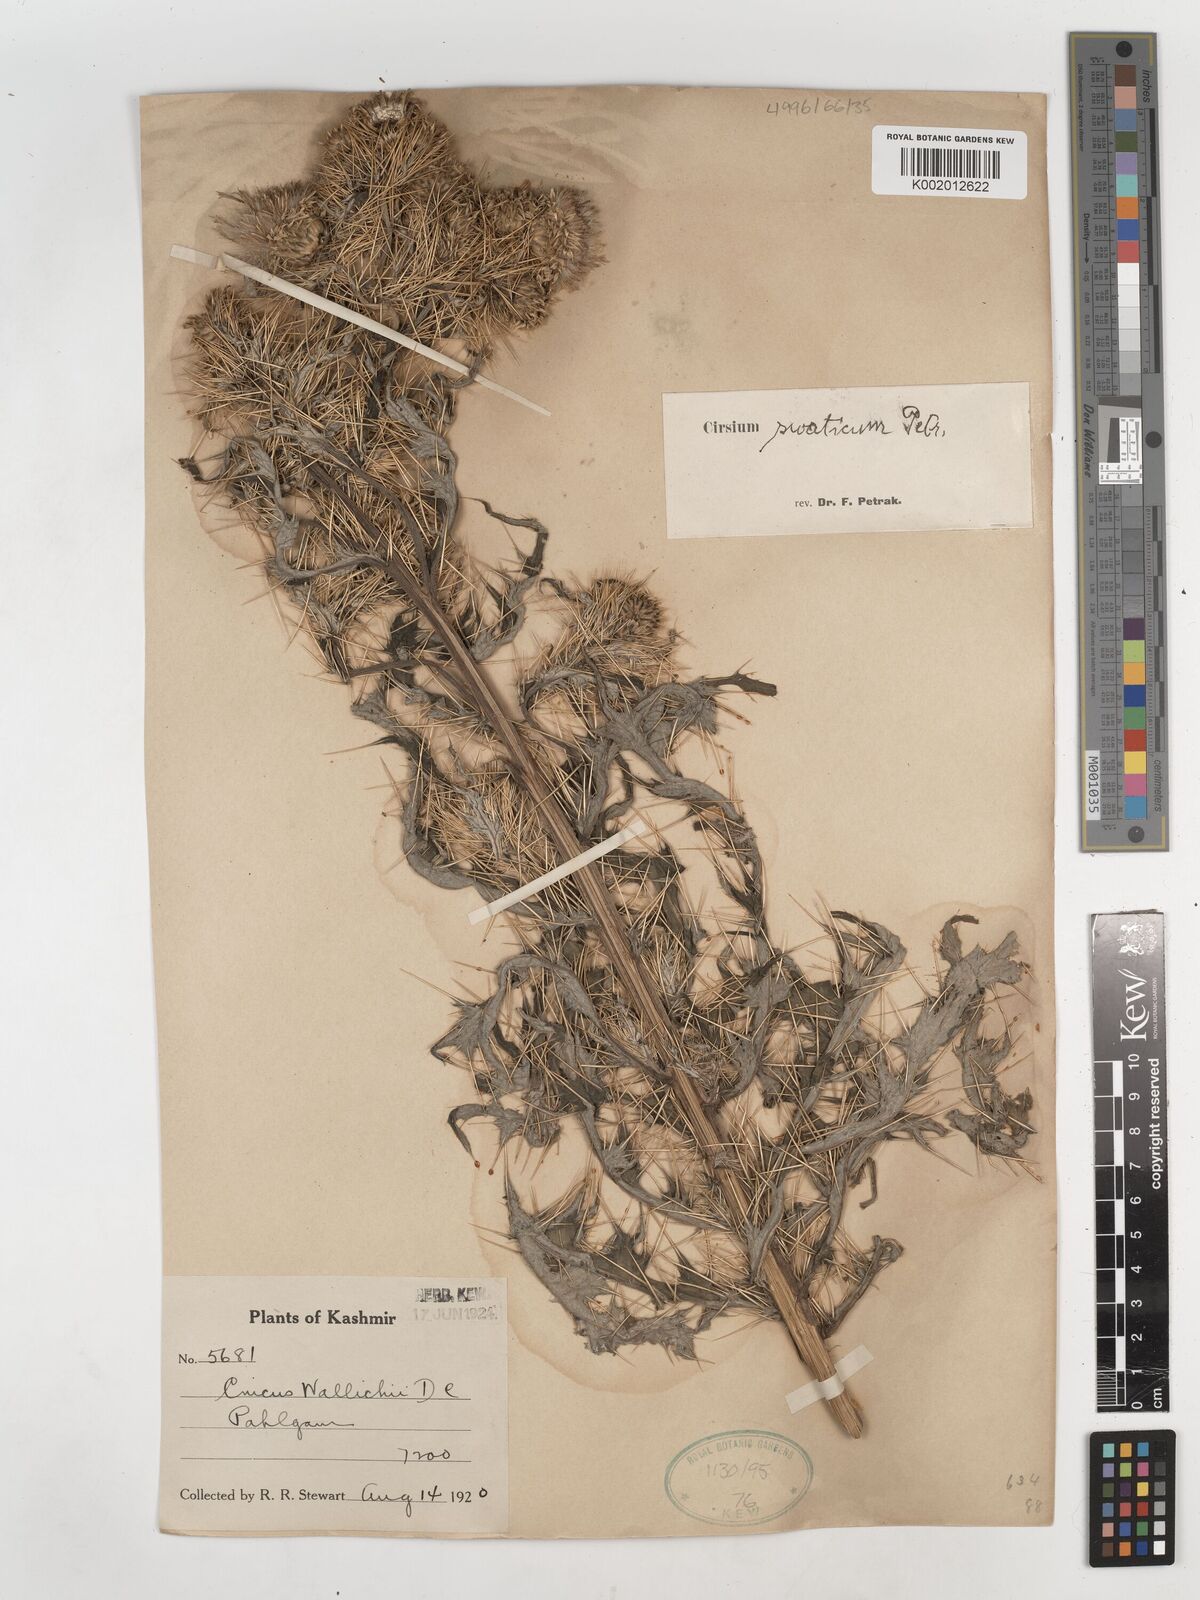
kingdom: Plantae
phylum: Tracheophyta
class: Magnoliopsida
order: Asterales
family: Asteraceae
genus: Cirsium
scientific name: Cirsium
